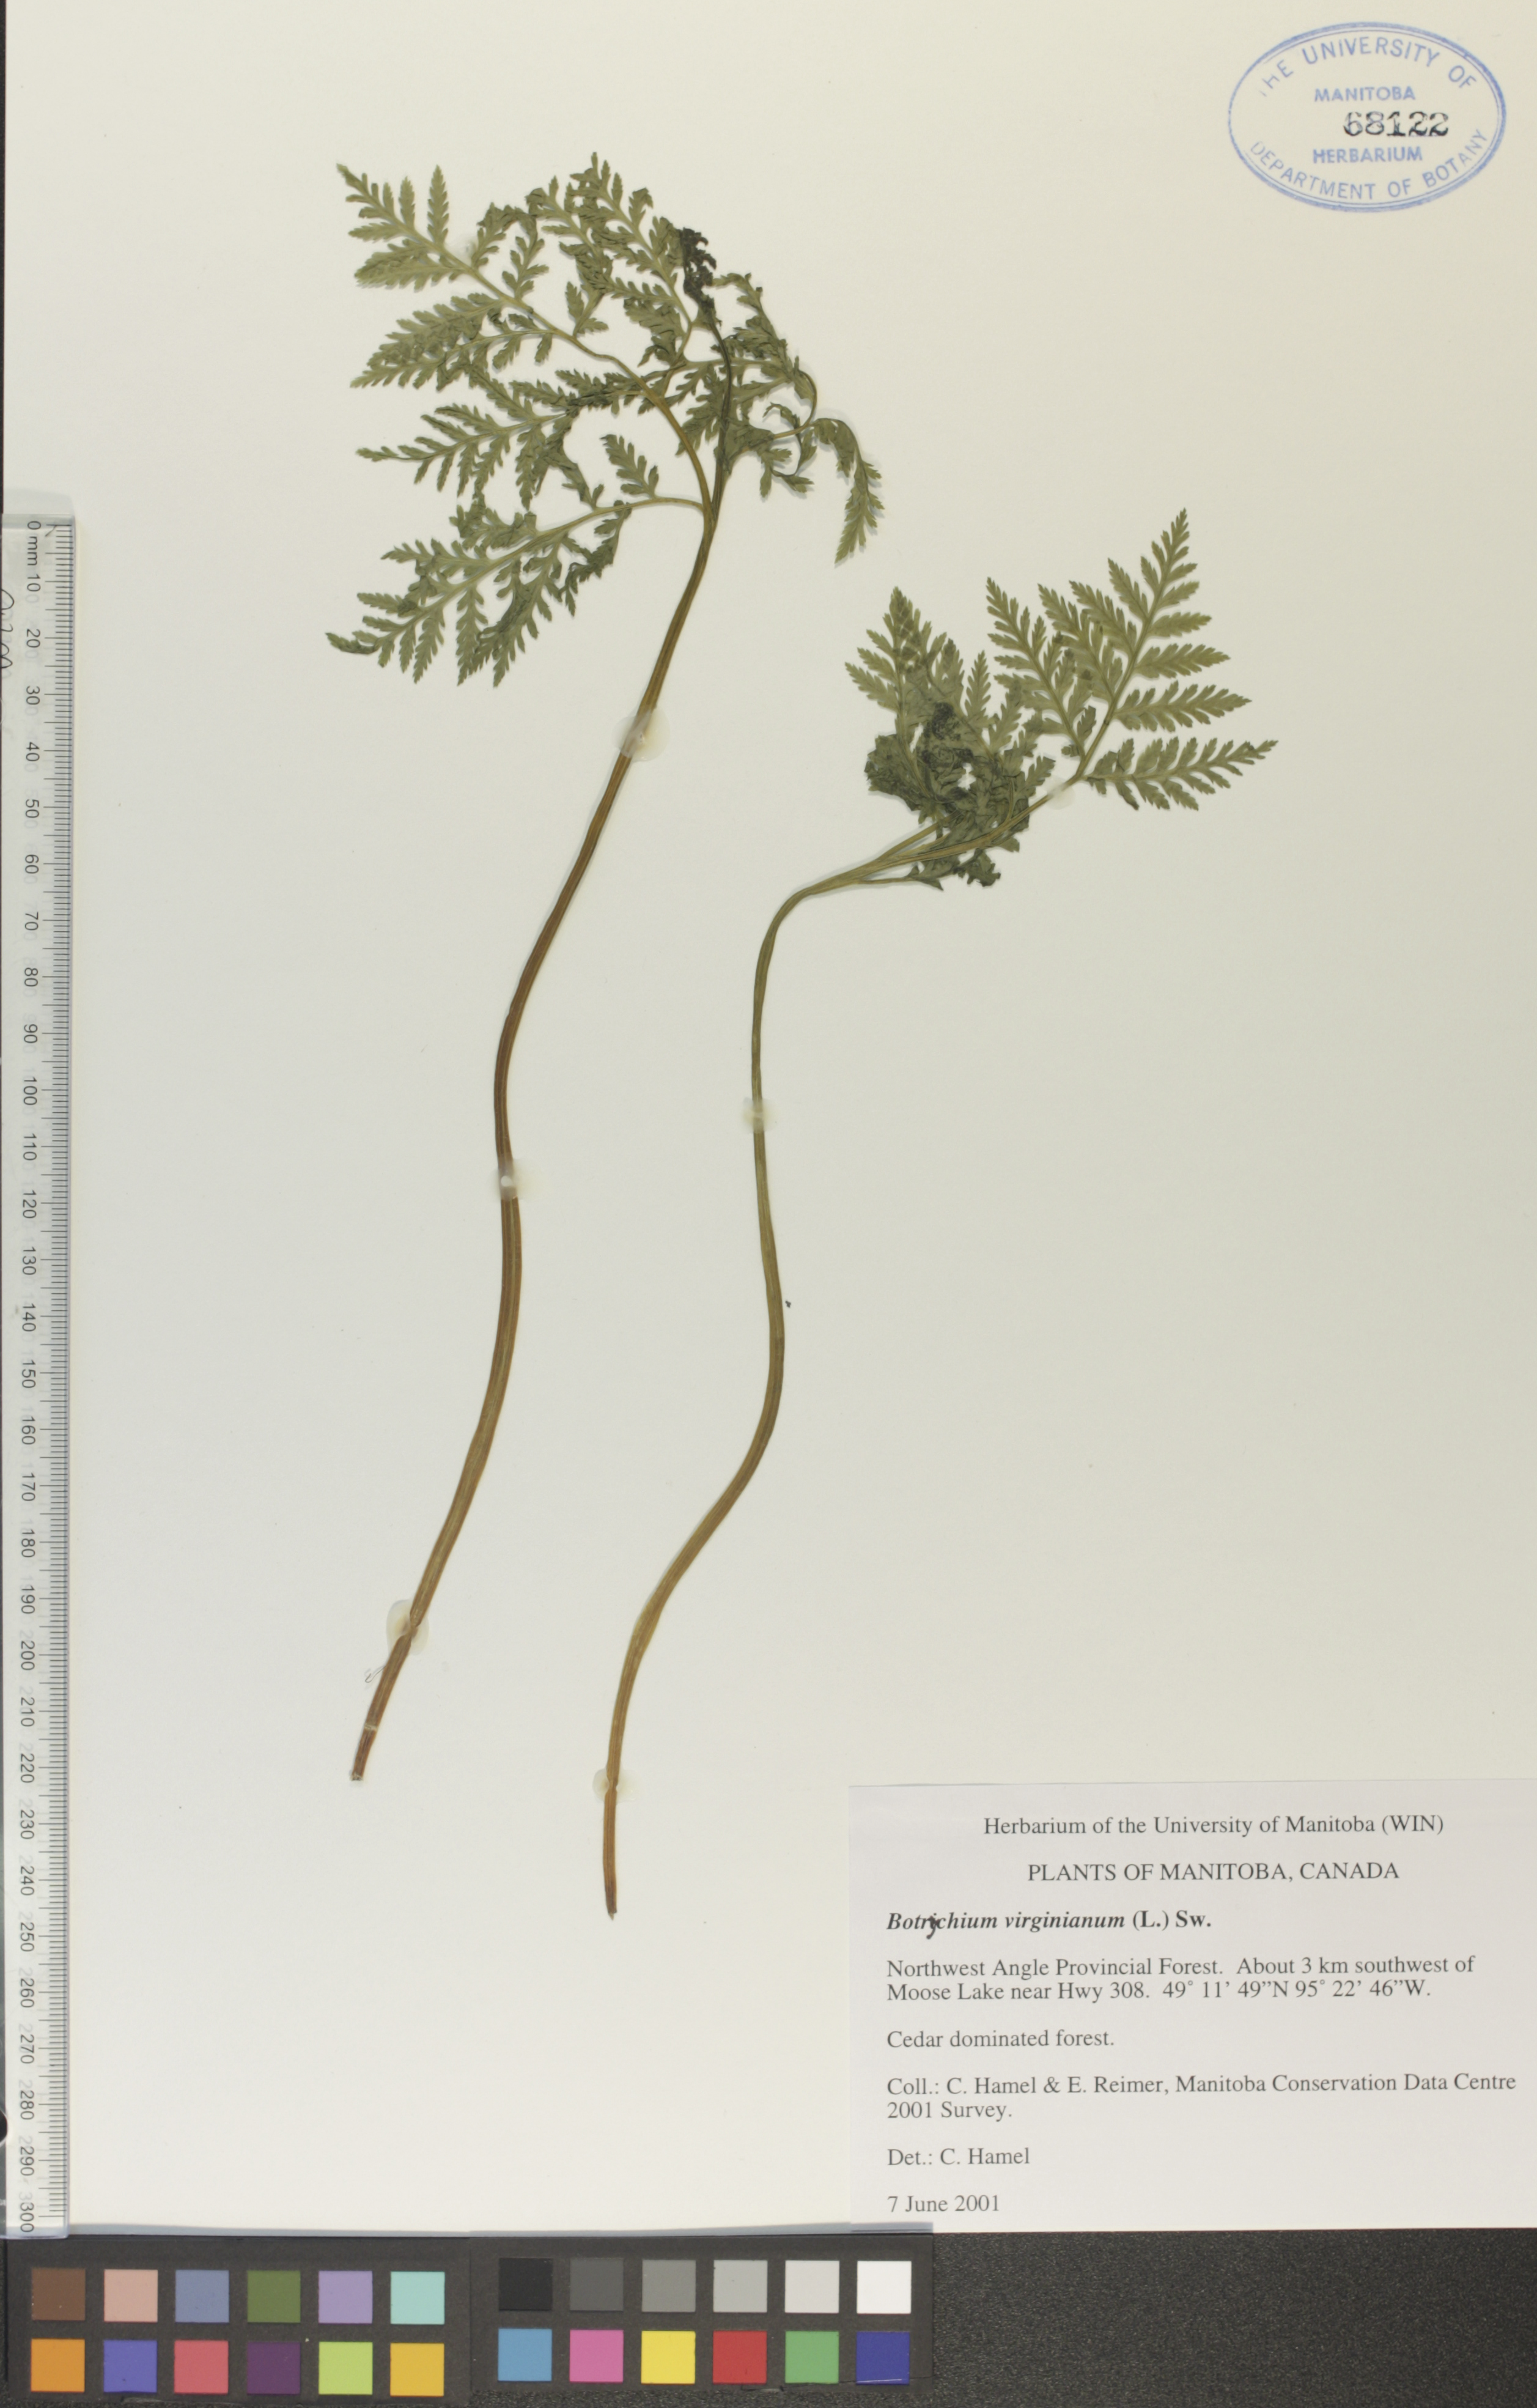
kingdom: Plantae
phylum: Tracheophyta
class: Polypodiopsida
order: Ophioglossales
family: Ophioglossaceae
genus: Botrypus
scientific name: Botrypus virginianus
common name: Common grapefern
